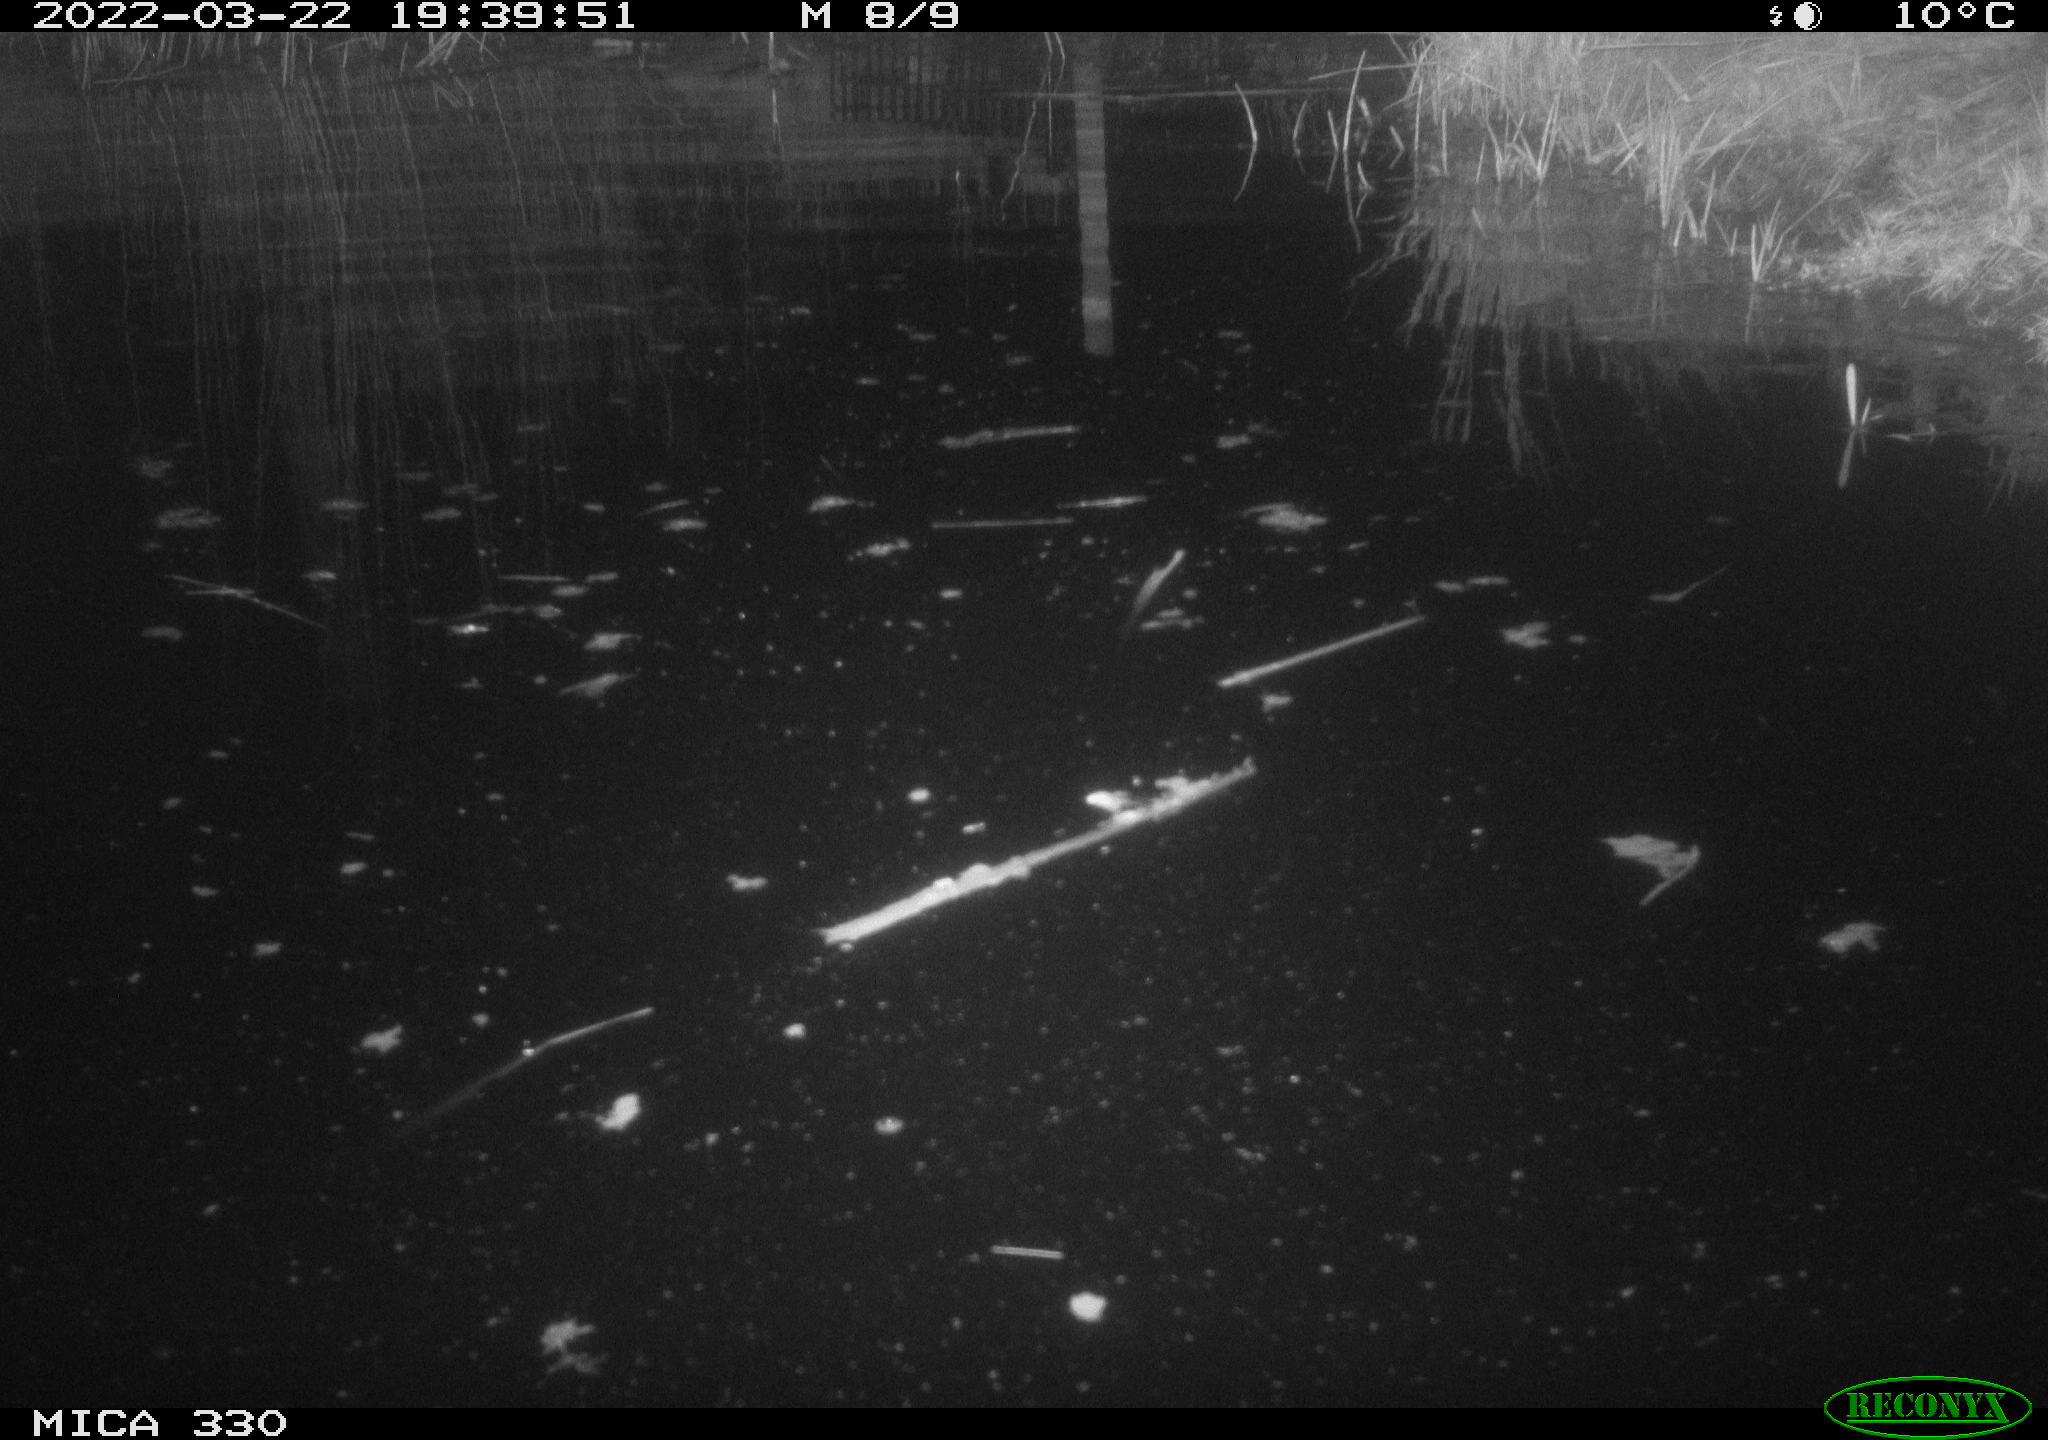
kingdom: Animalia
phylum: Chordata
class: Aves
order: Gruiformes
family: Rallidae
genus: Gallinula
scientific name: Gallinula chloropus
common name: Common moorhen
